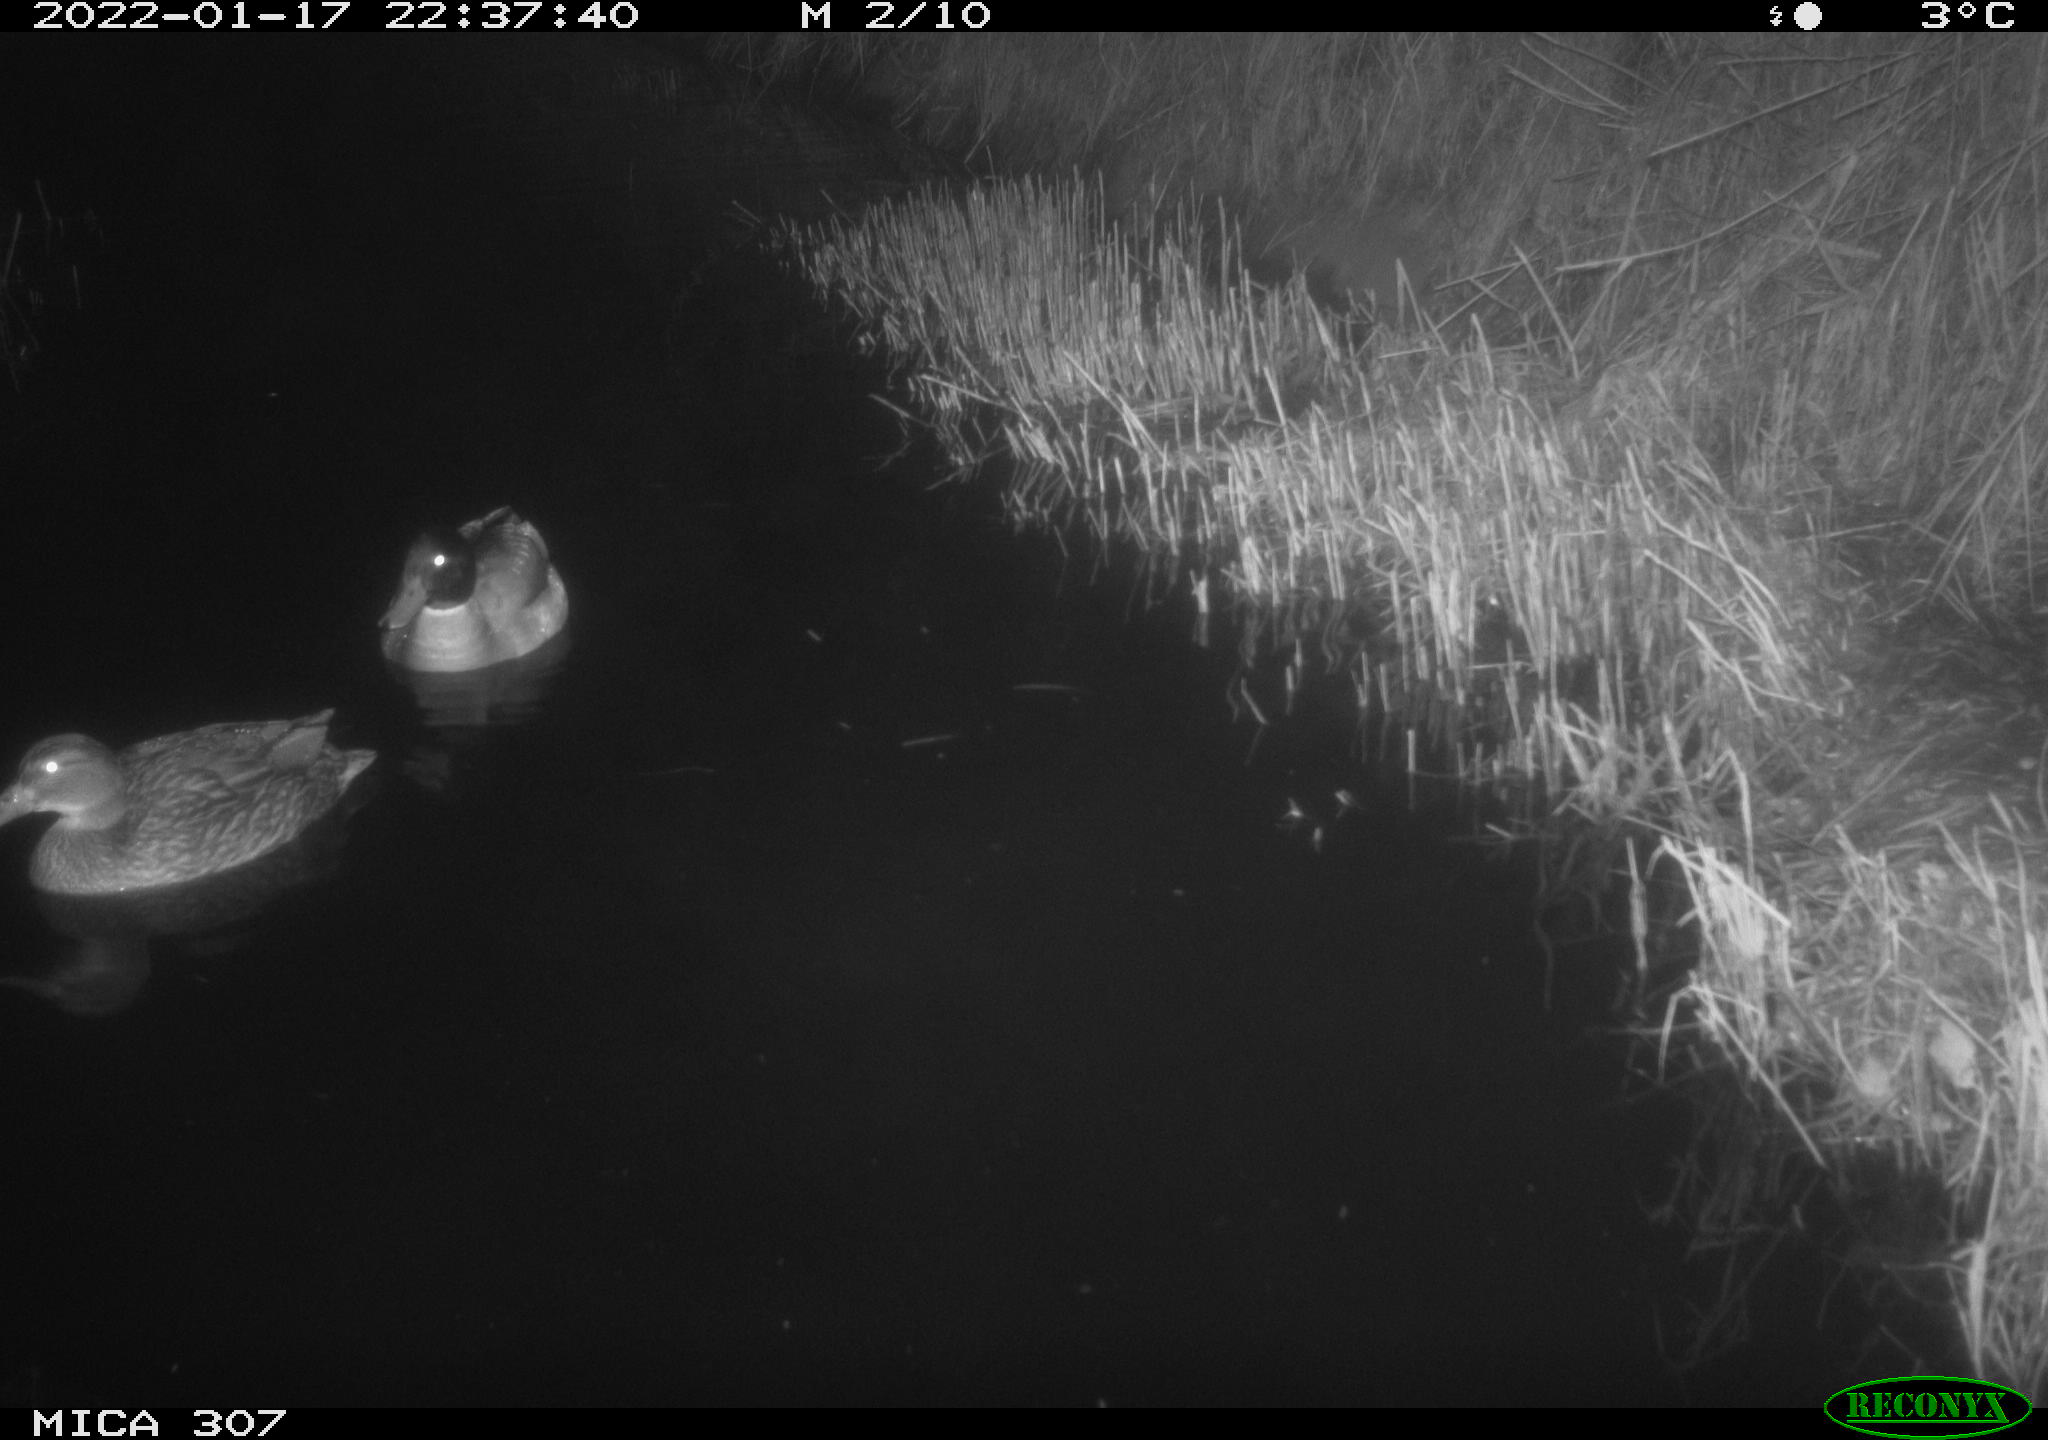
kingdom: Animalia
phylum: Chordata
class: Aves
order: Anseriformes
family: Anatidae
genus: Anas
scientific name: Anas
